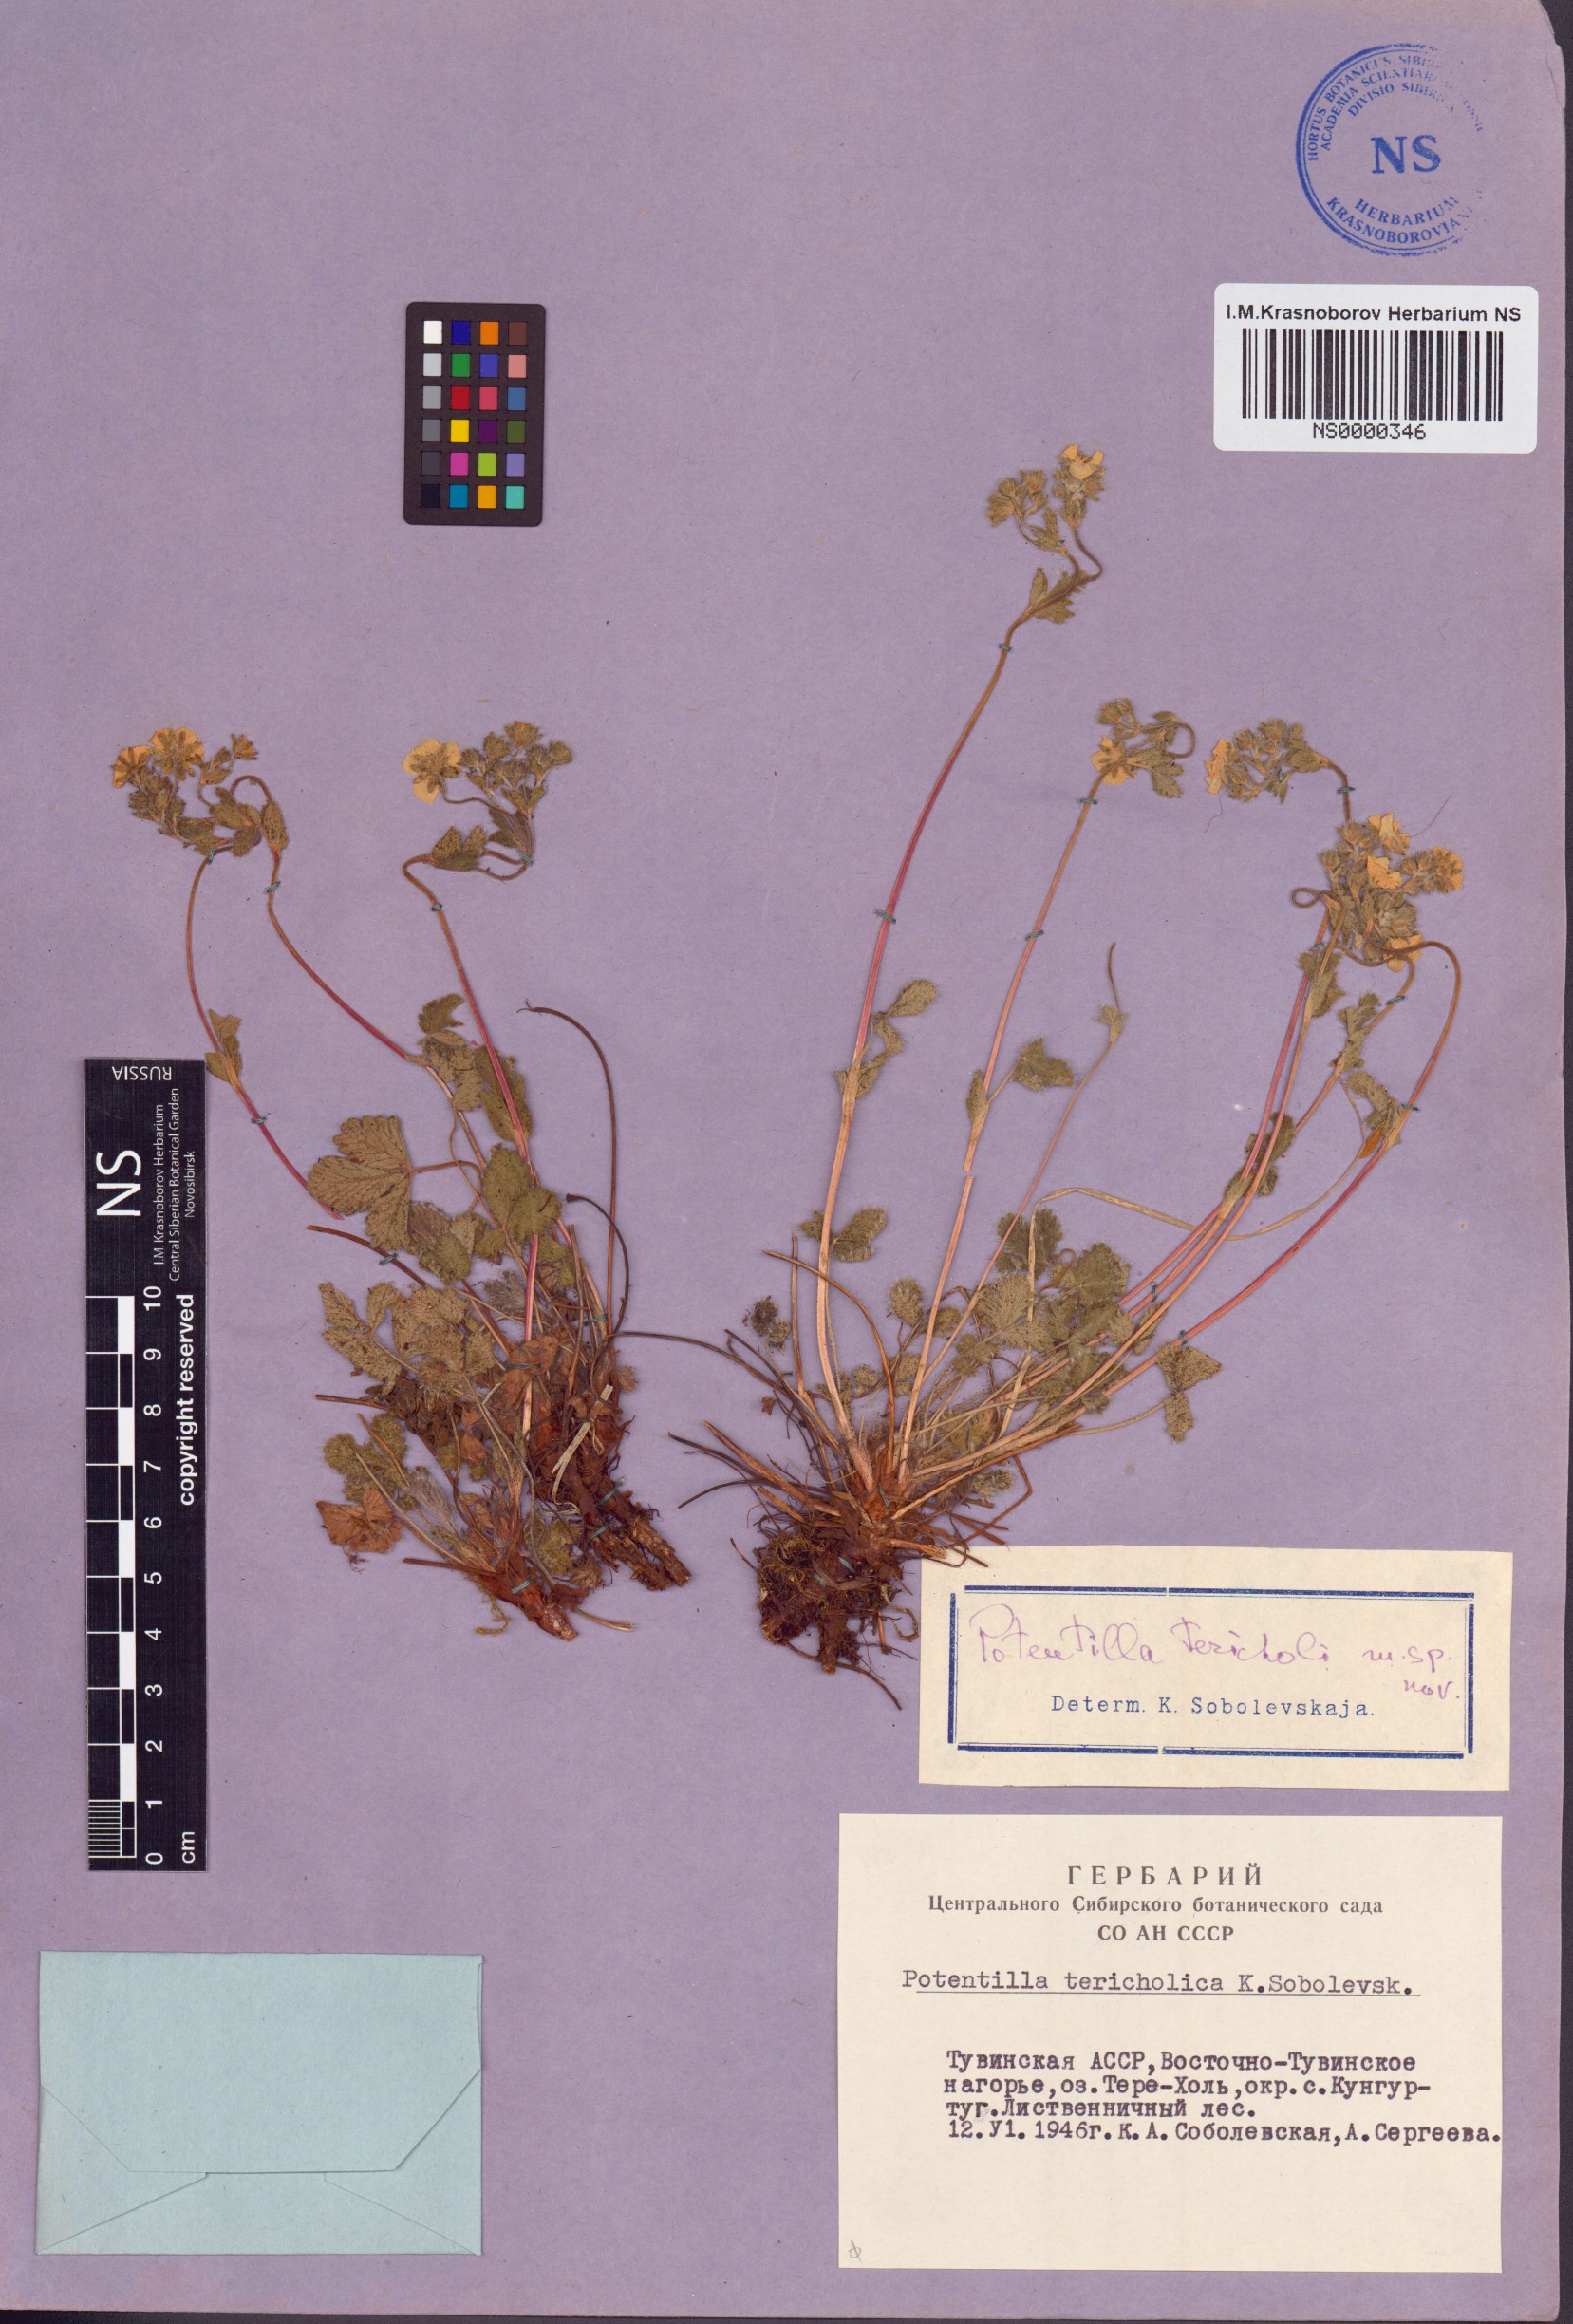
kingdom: Plantae
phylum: Tracheophyta
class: Magnoliopsida
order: Rosales
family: Rosaceae
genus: Potentilla
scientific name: Potentilla tericholica
